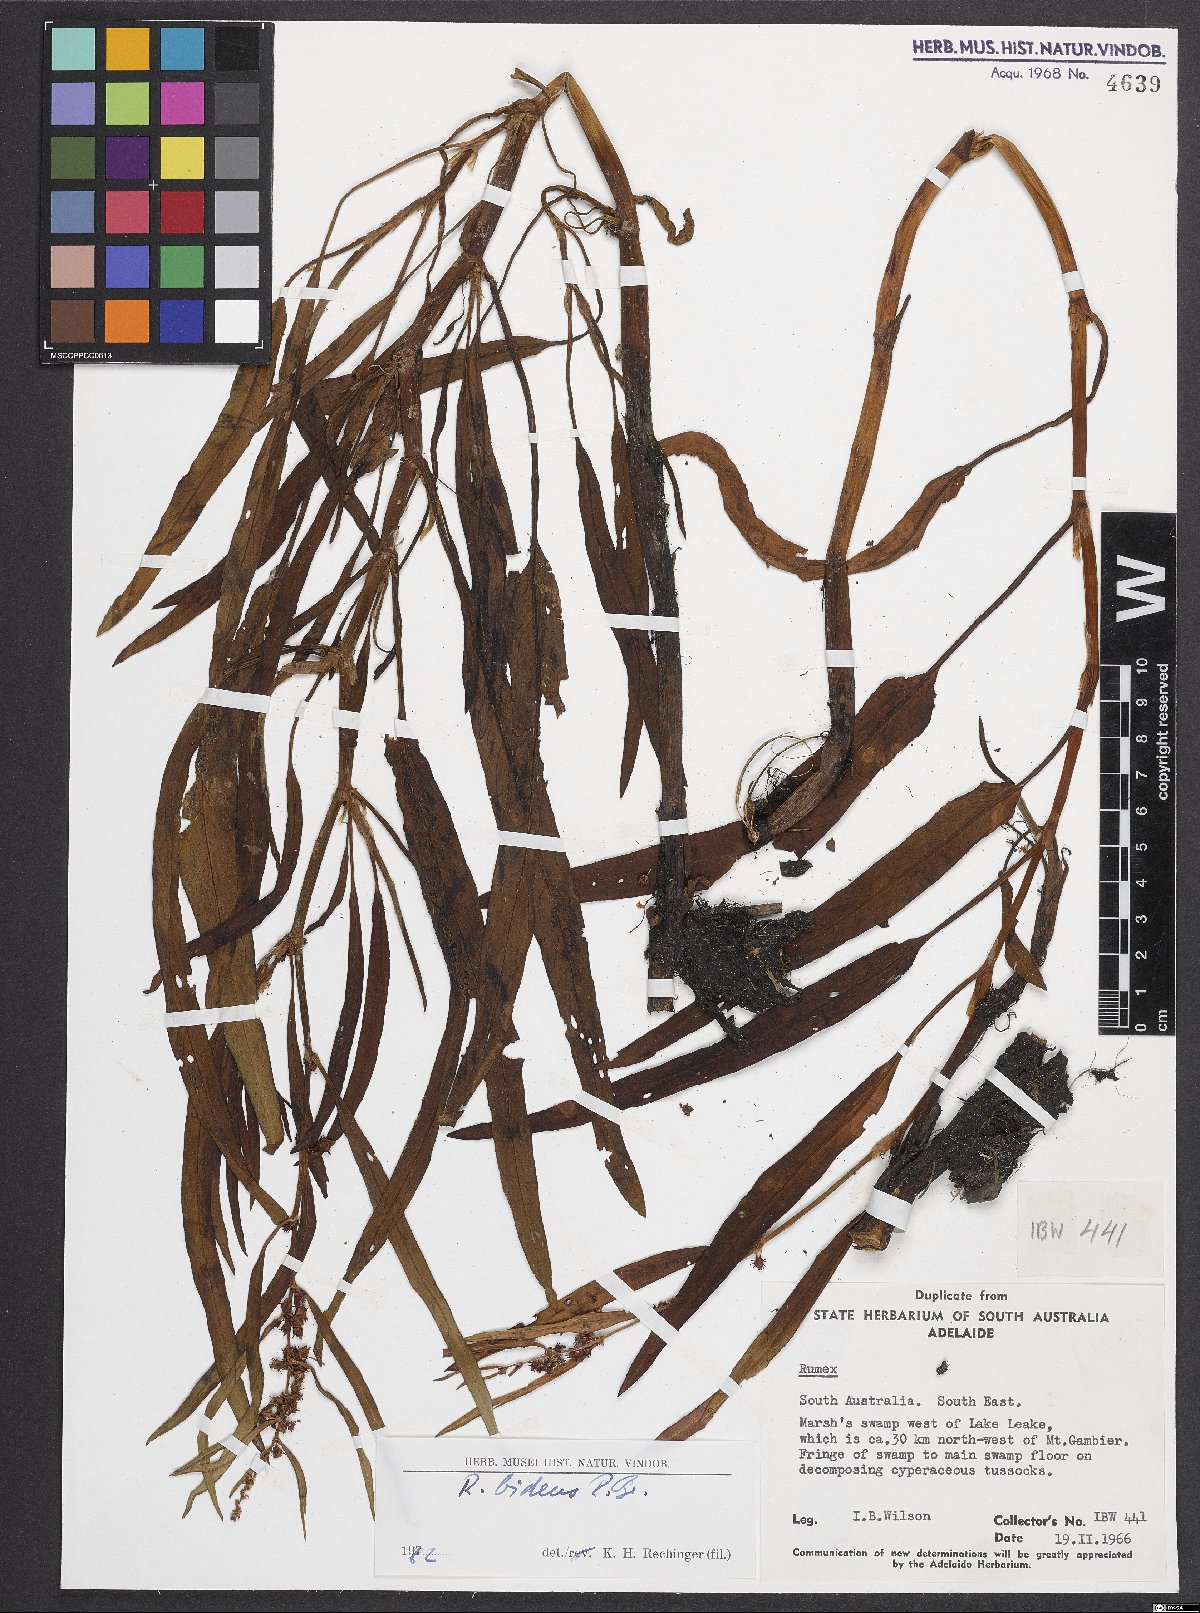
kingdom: Plantae
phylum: Tracheophyta
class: Magnoliopsida
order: Caryophyllales
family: Polygonaceae
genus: Rumex
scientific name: Rumex
